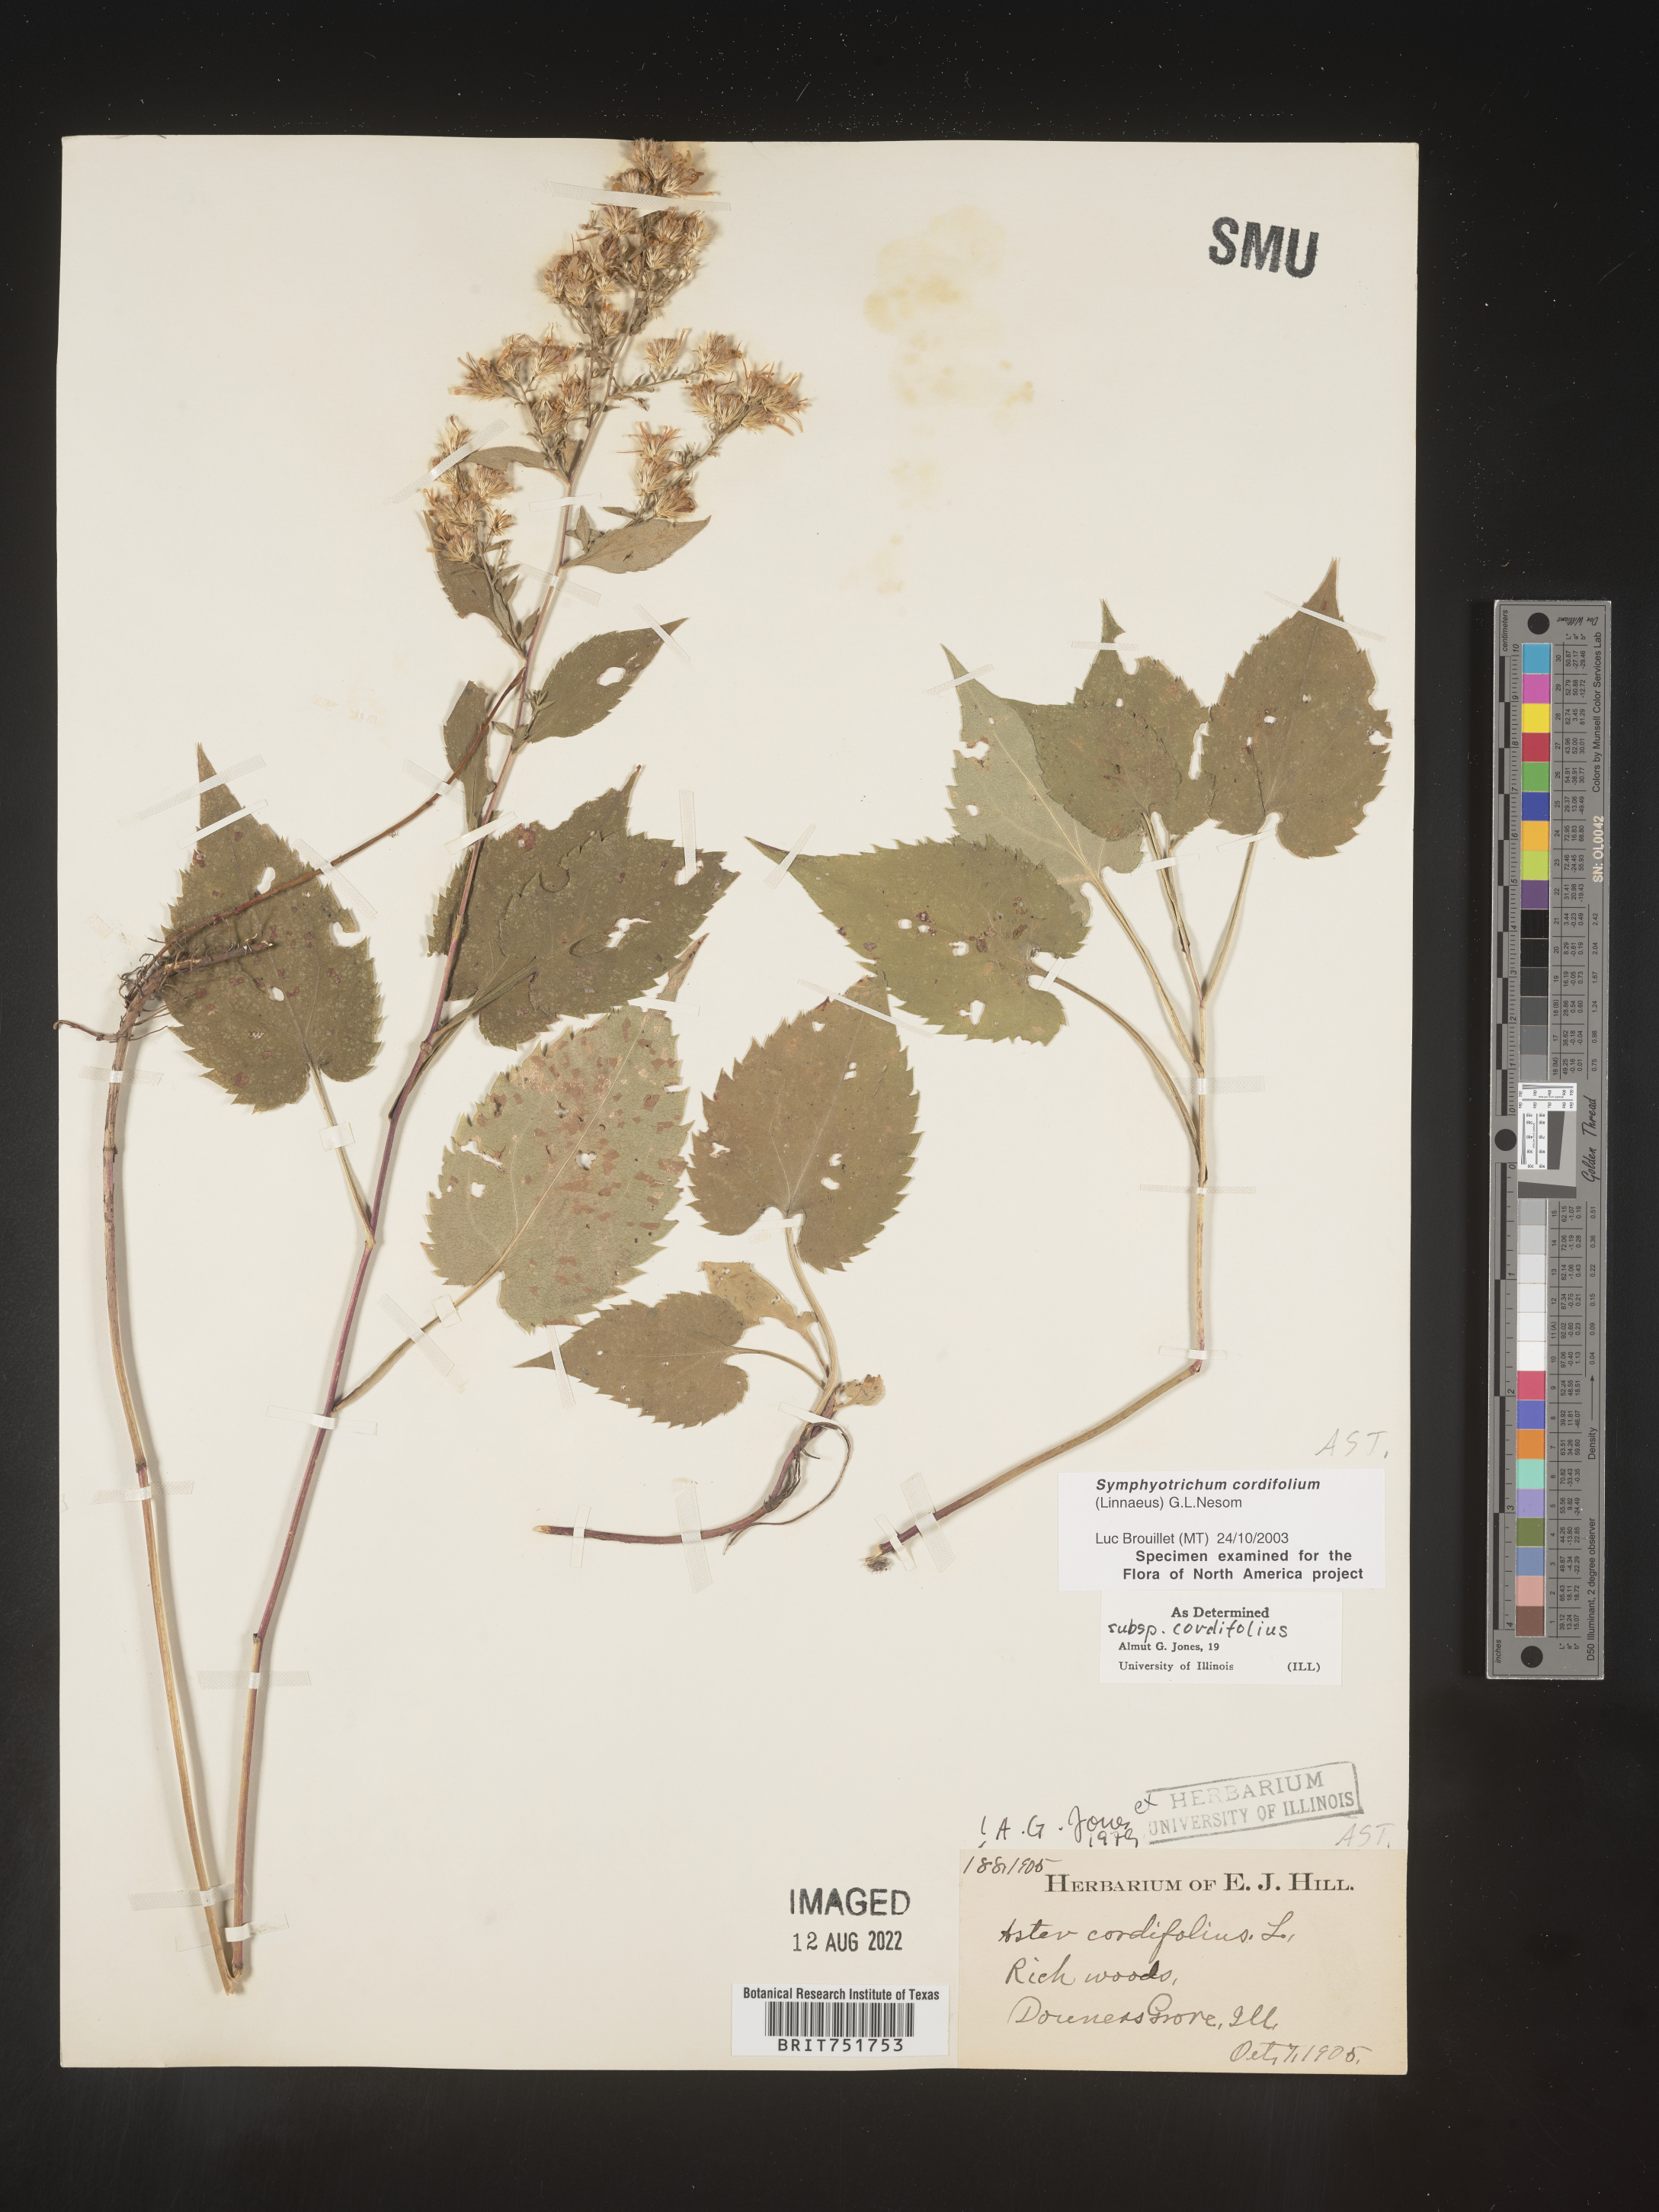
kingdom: Plantae
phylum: Tracheophyta
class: Magnoliopsida
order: Asterales
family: Asteraceae
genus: Symphyotrichum
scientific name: Symphyotrichum cordifolium
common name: Beeweed
